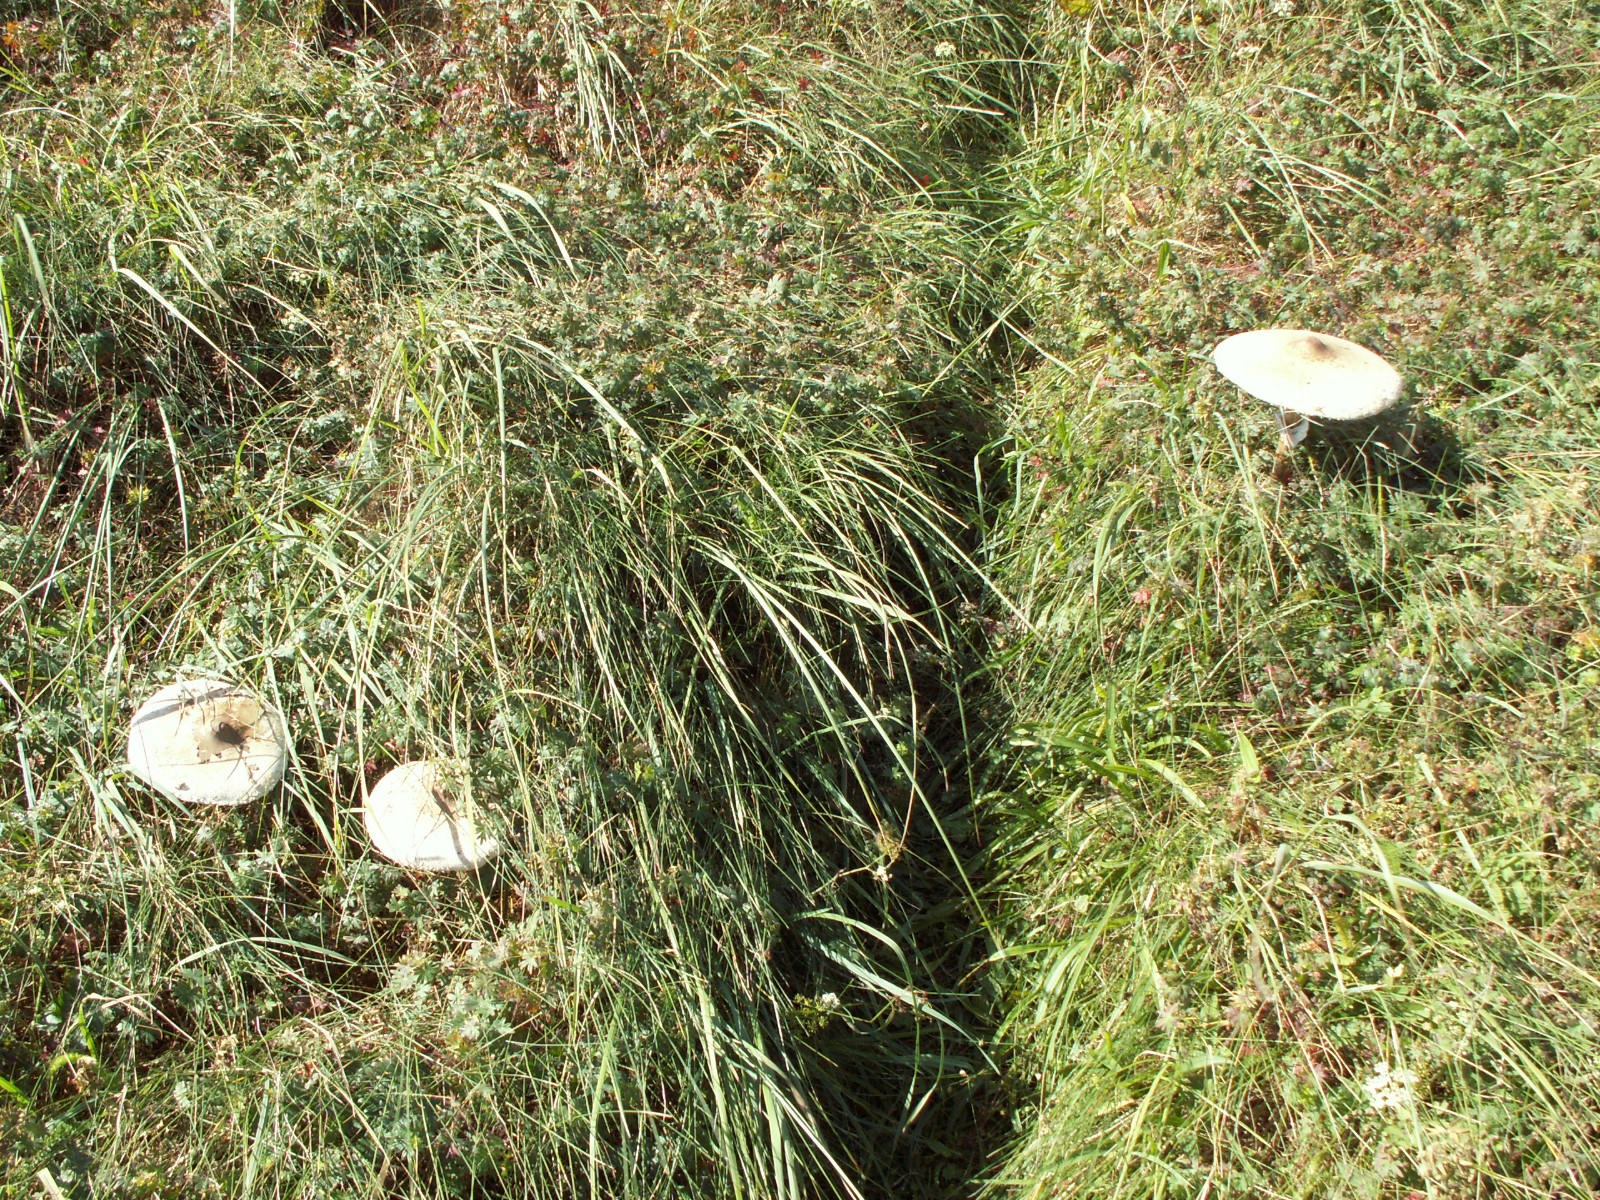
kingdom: Fungi
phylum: Basidiomycota
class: Agaricomycetes
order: Agaricales
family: Agaricaceae
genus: Macrolepiota
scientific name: Macrolepiota excoriata
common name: mark-kæmpeparasolhat
